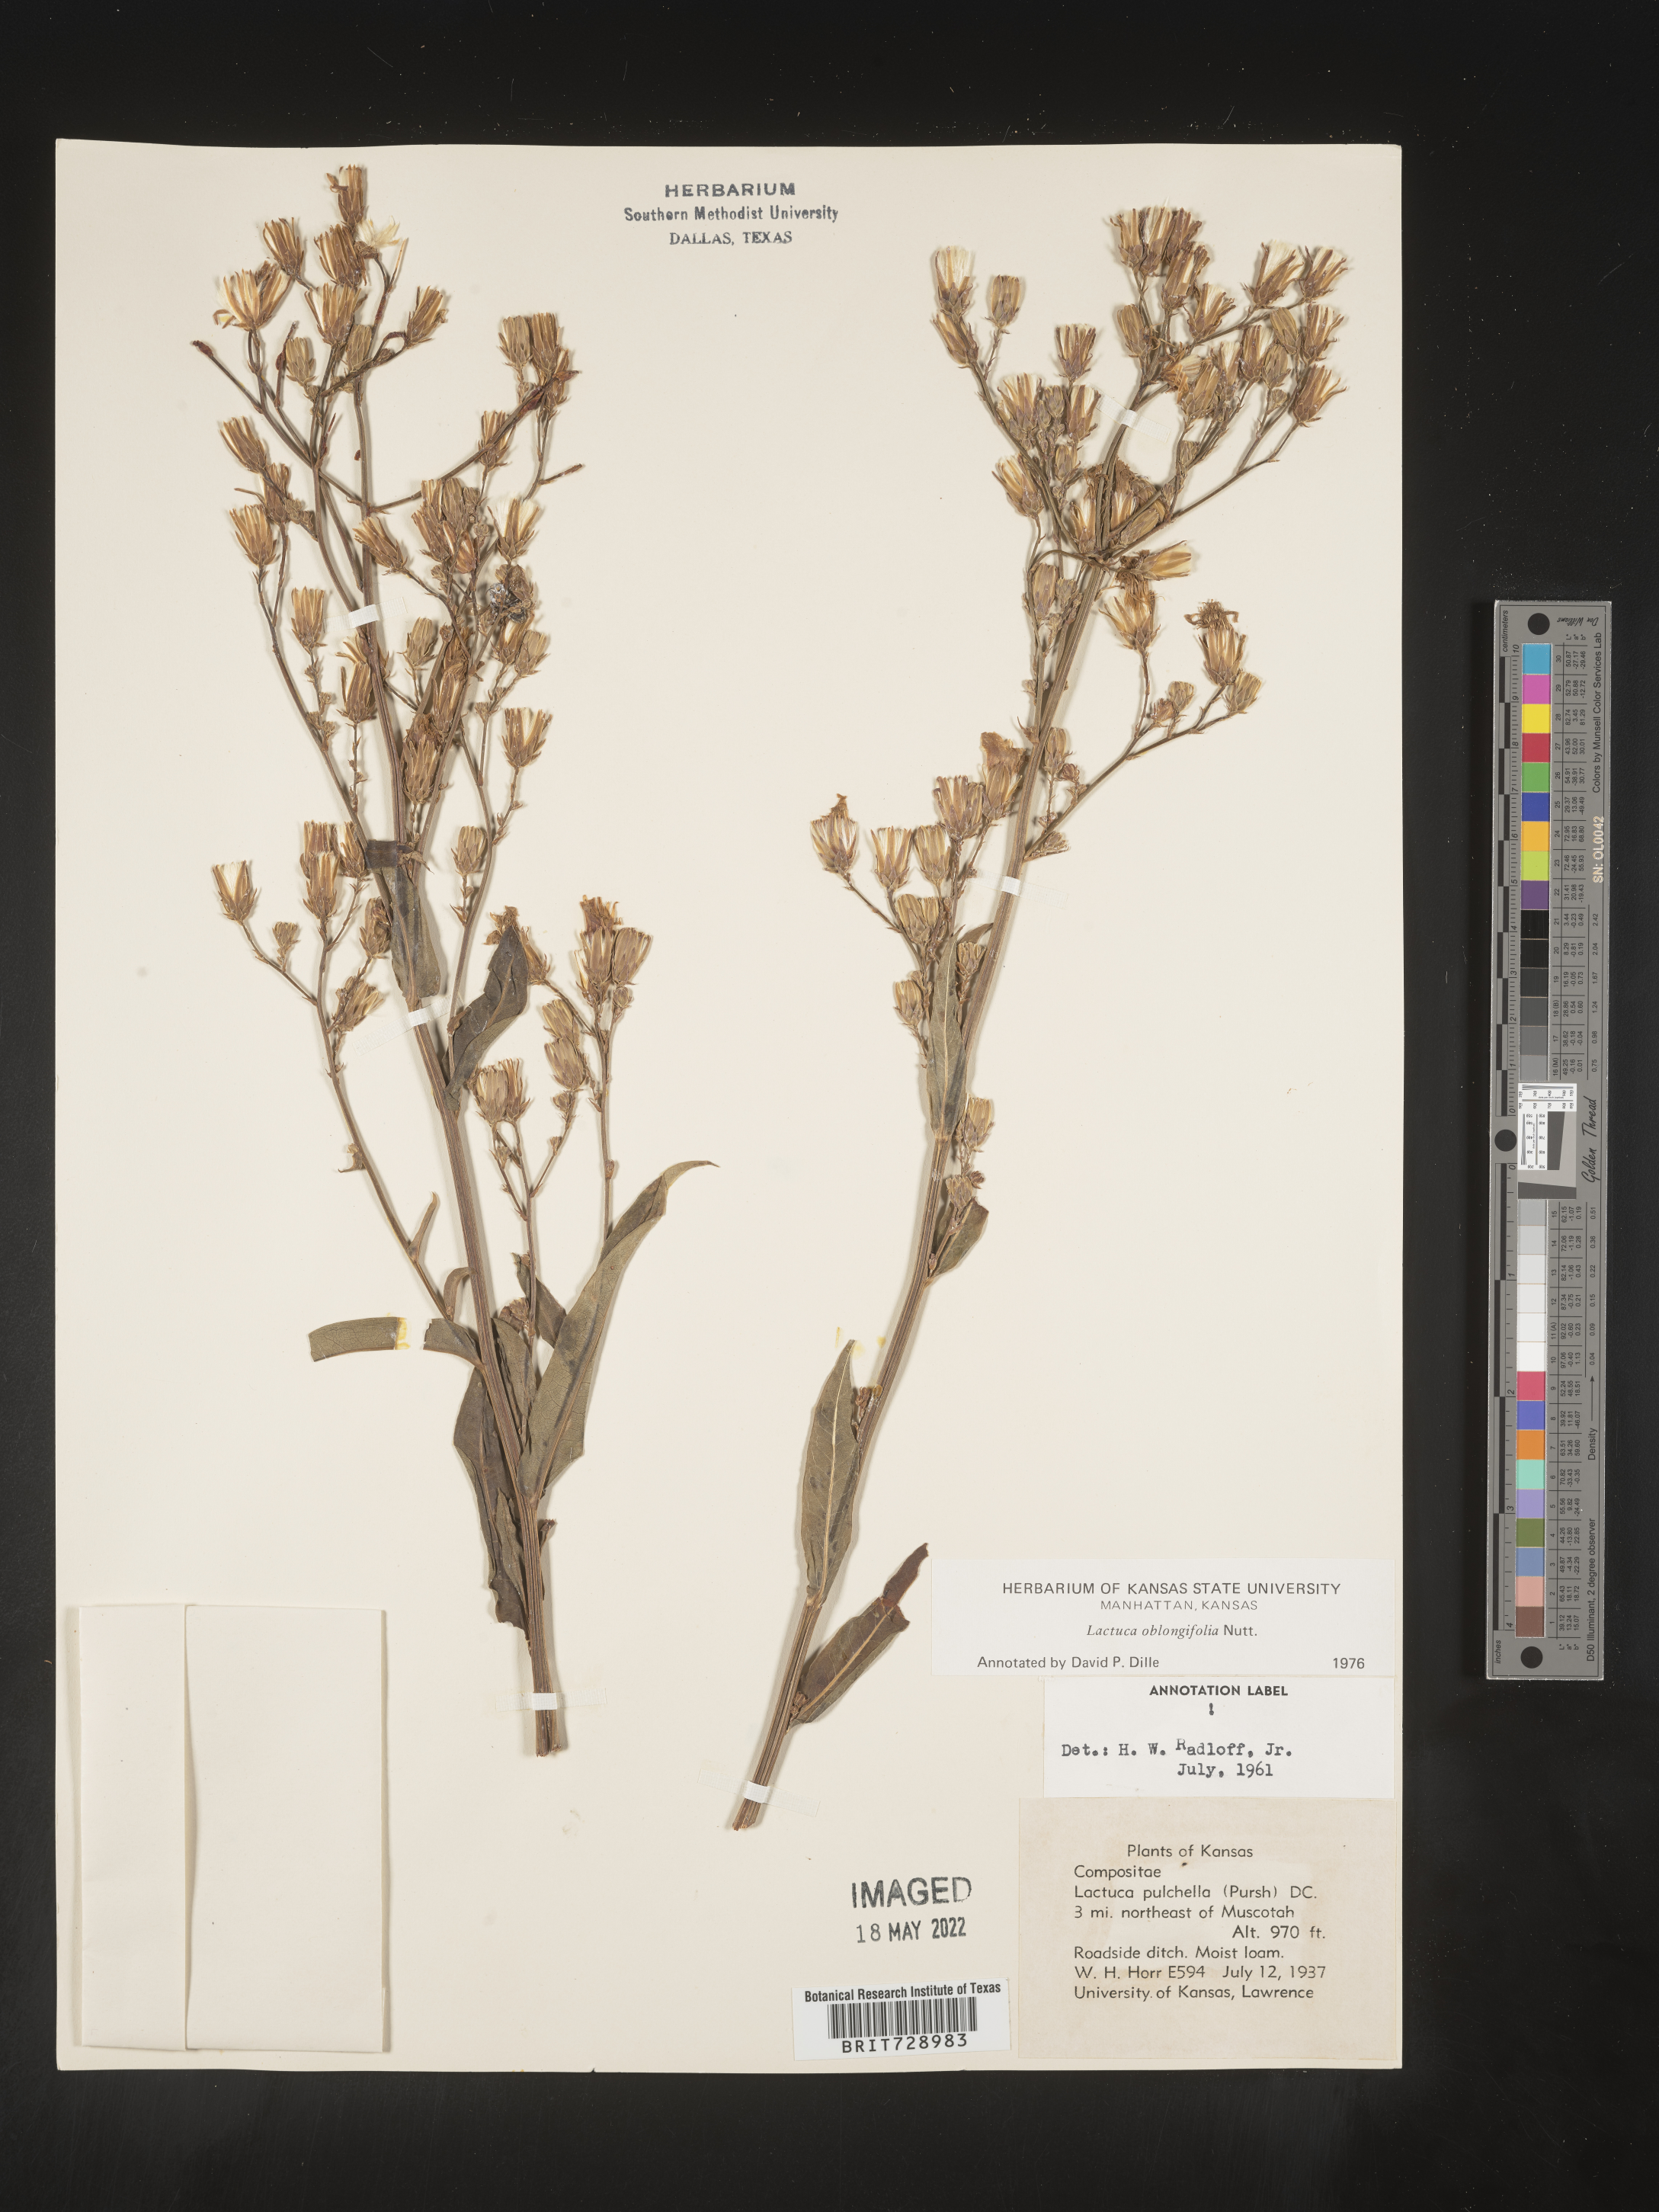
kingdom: Plantae
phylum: Tracheophyta
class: Magnoliopsida
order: Asterales
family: Asteraceae
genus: Lactuca
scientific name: Lactuca pulchella
